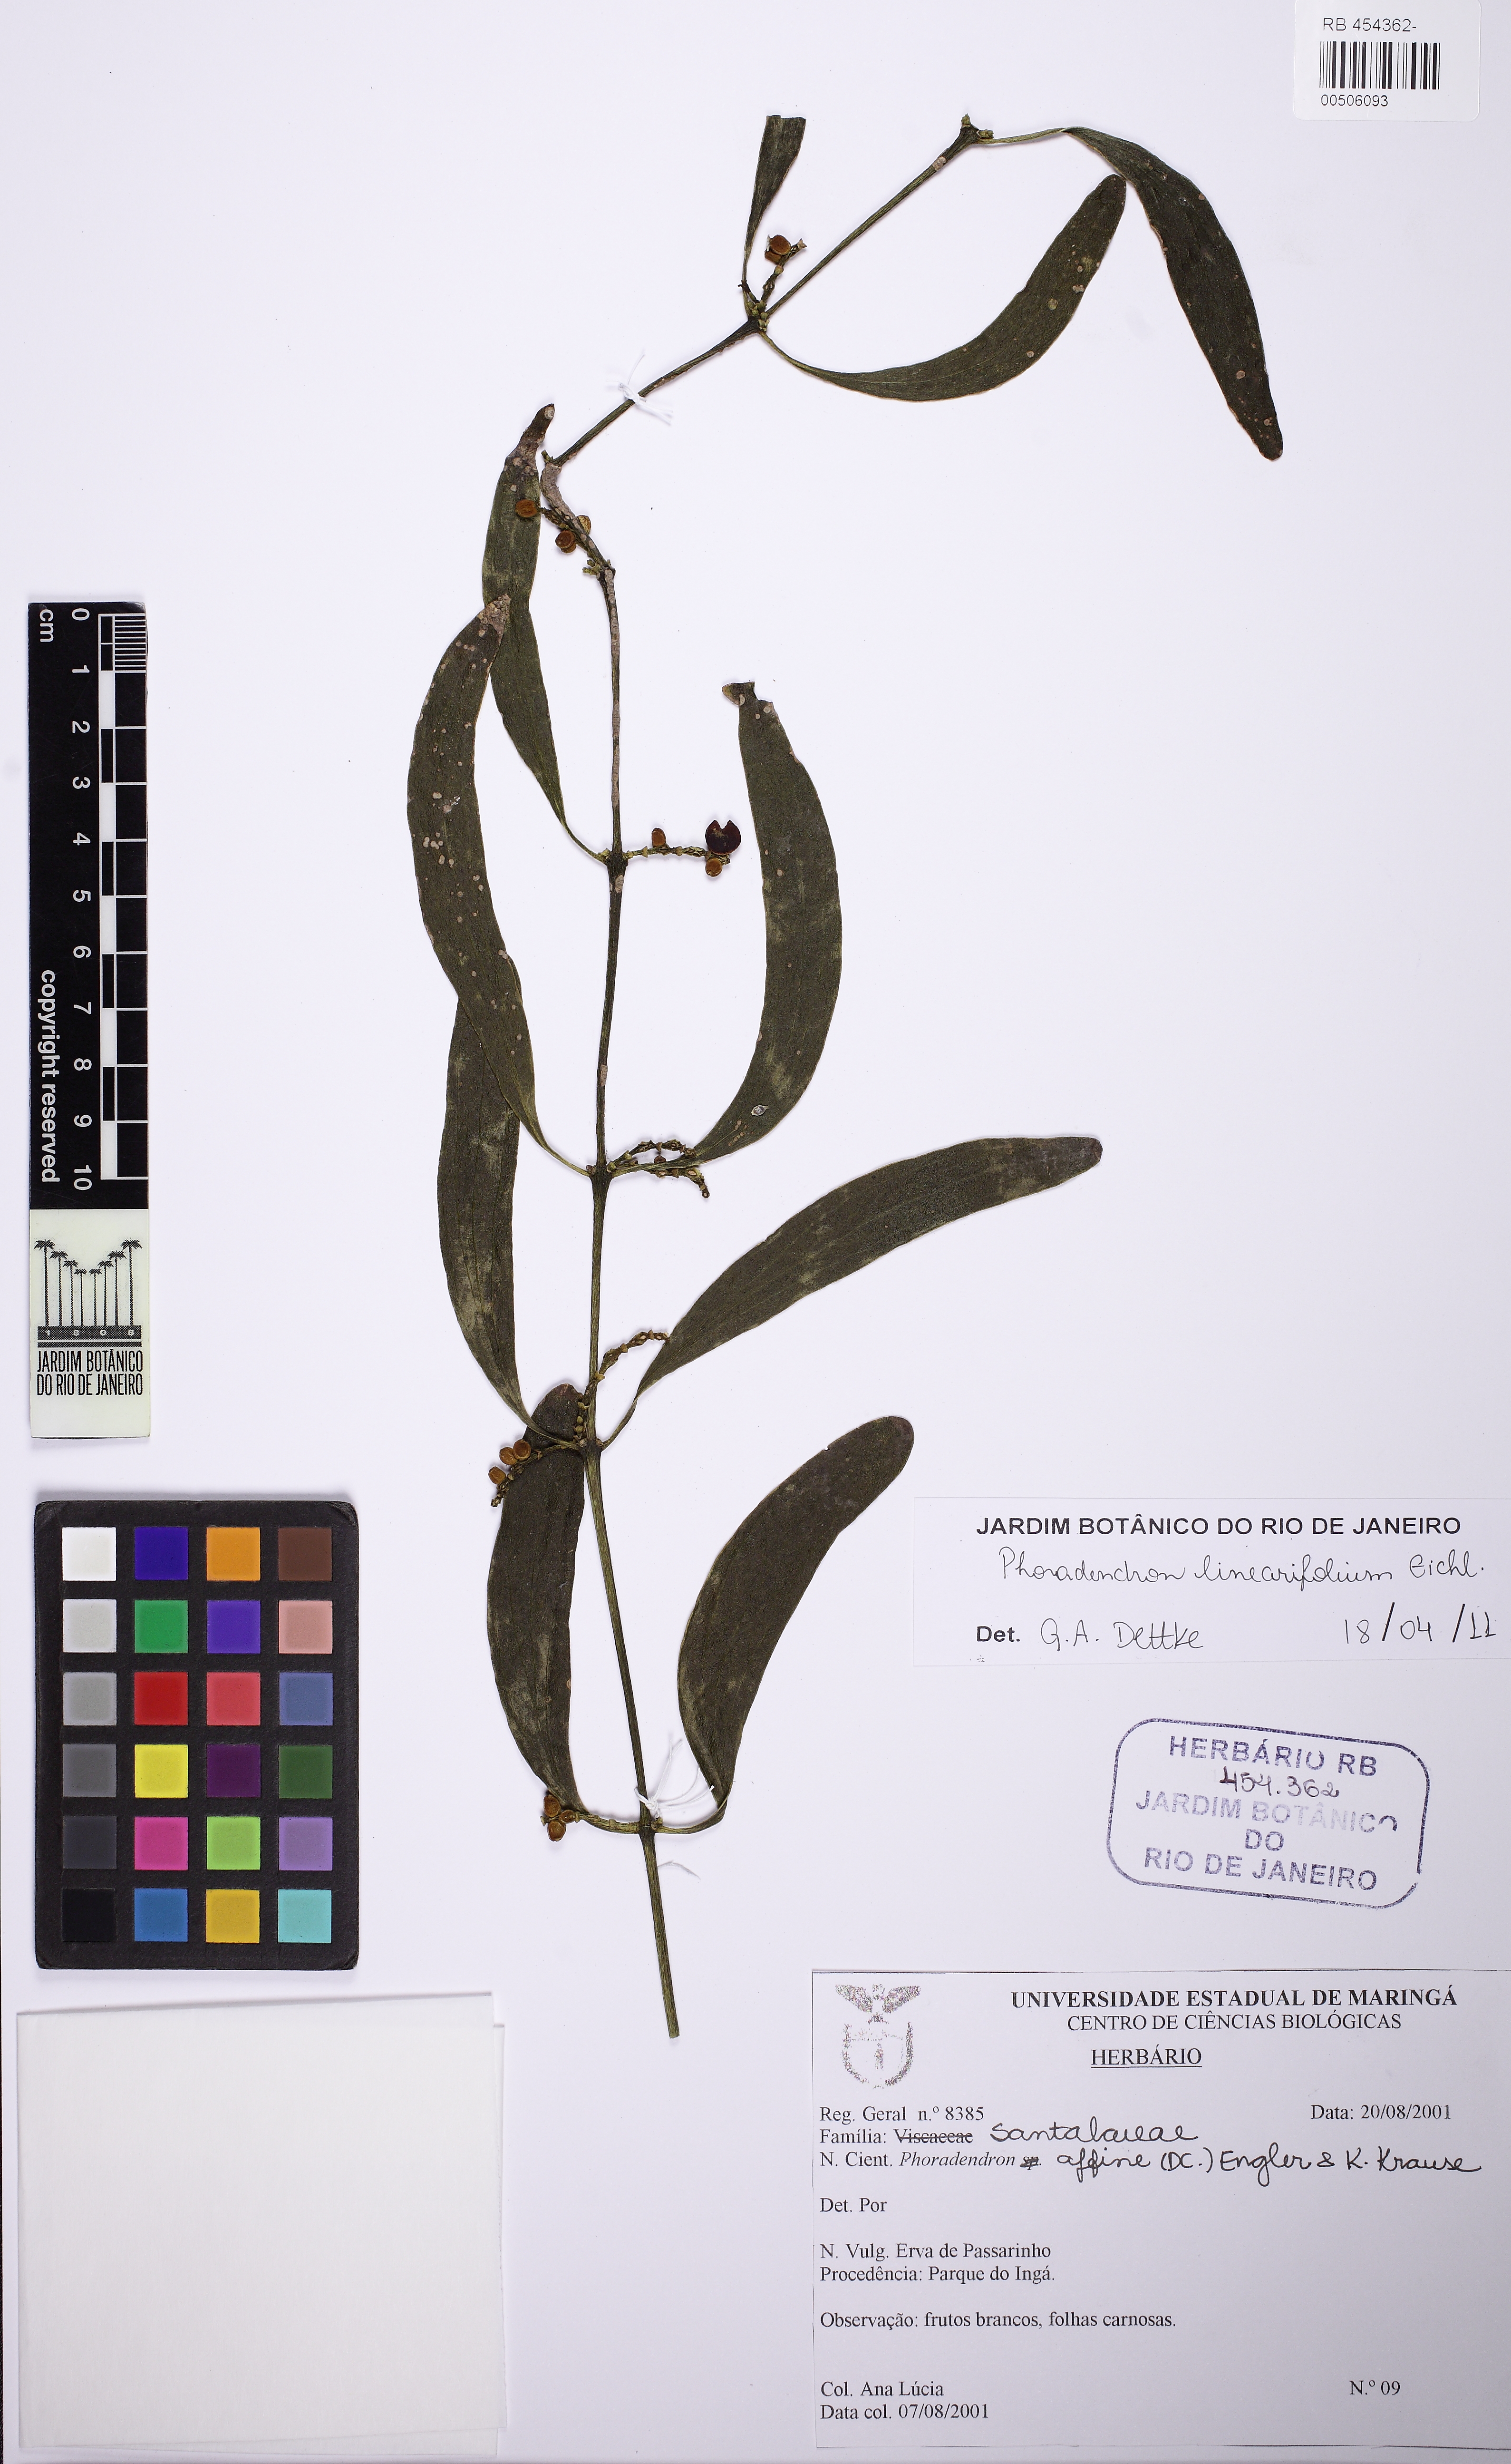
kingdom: Plantae
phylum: Tracheophyta
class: Magnoliopsida
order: Santalales
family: Viscaceae
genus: Phoradendron
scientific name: Phoradendron linearifolium
